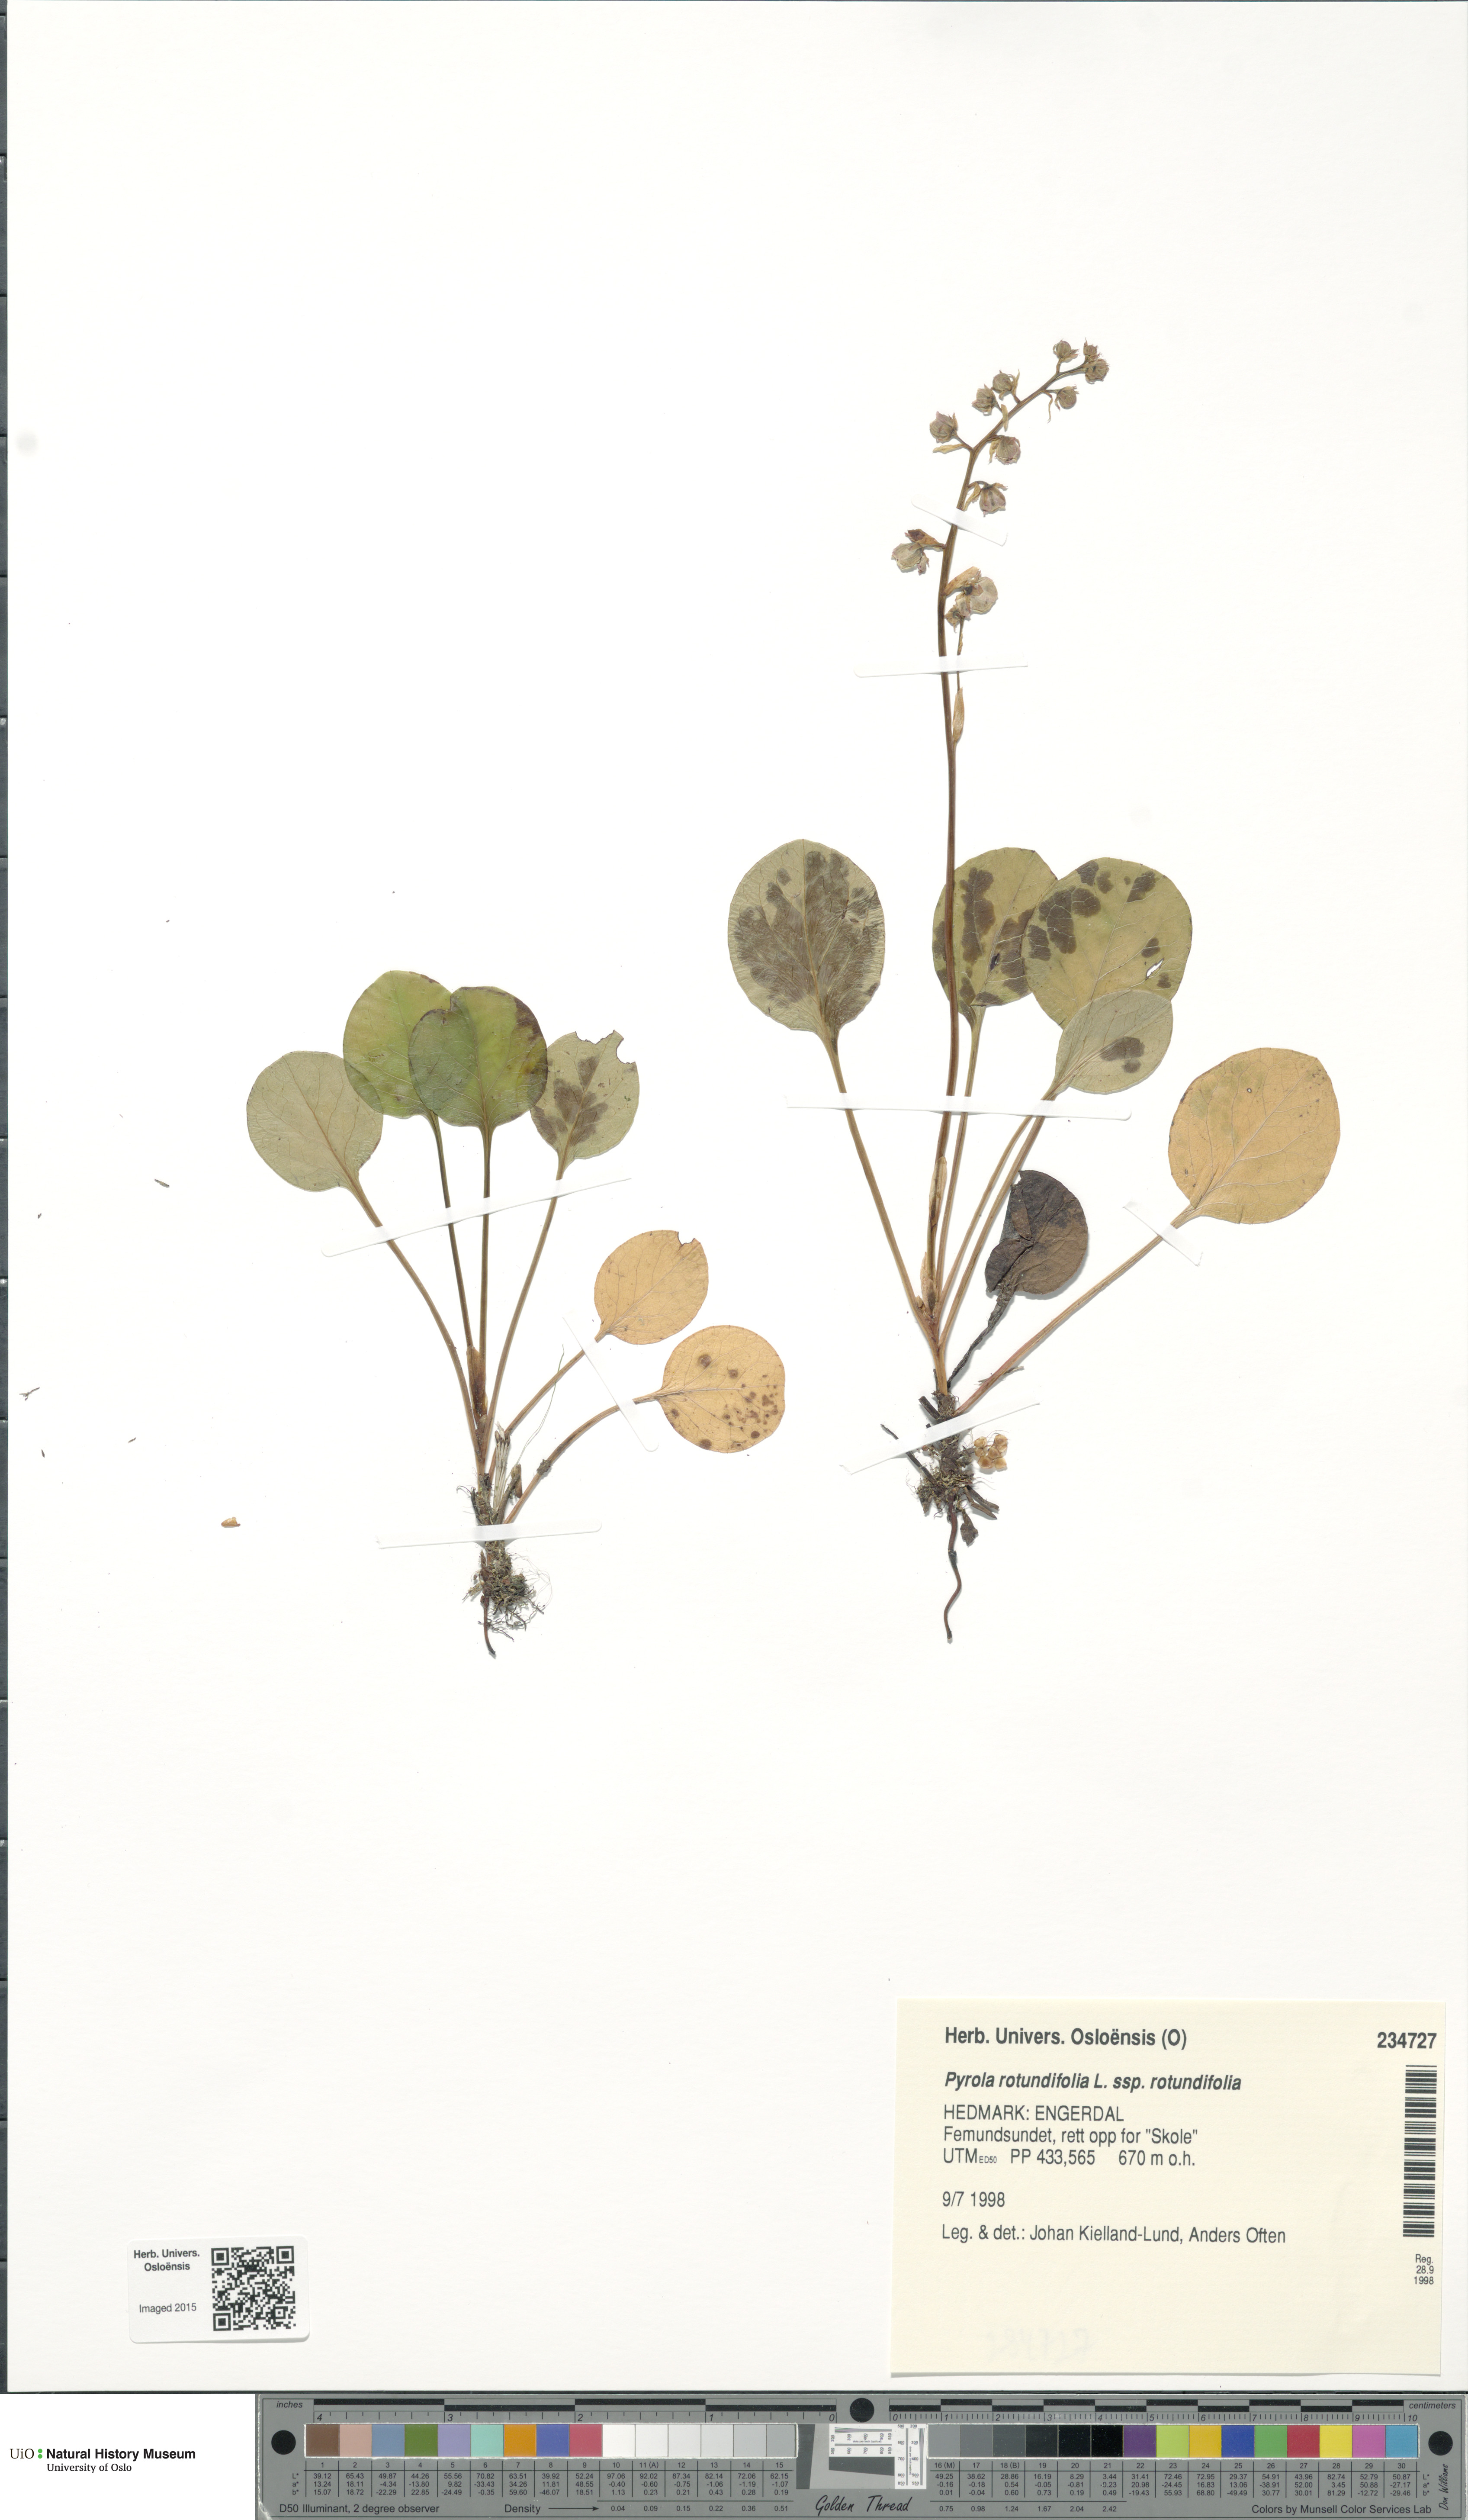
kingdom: Plantae
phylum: Tracheophyta
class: Magnoliopsida
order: Ericales
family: Ericaceae
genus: Pyrola
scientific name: Pyrola rotundifolia
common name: Round-leaved wintergreen
